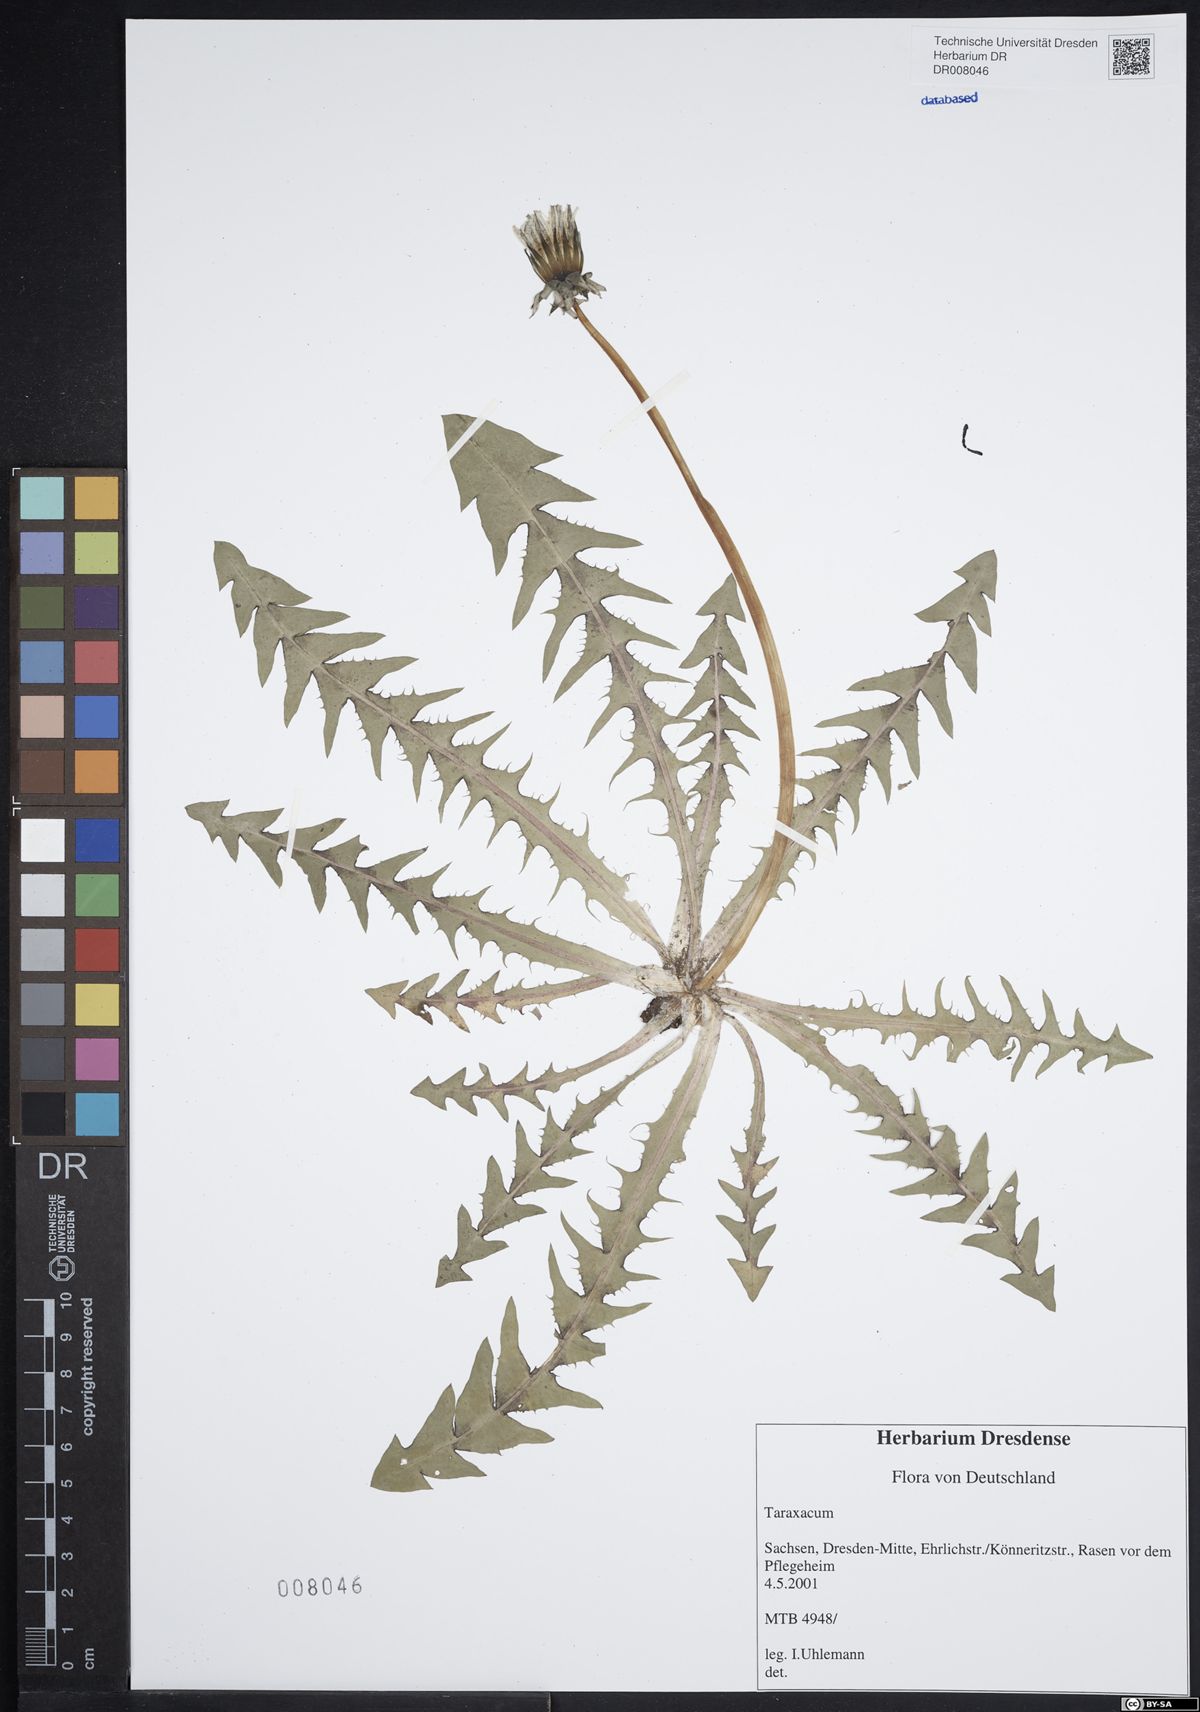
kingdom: Plantae
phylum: Tracheophyta
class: Magnoliopsida
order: Asterales
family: Asteraceae
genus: Taraxacum
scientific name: Taraxacum infuscatum
